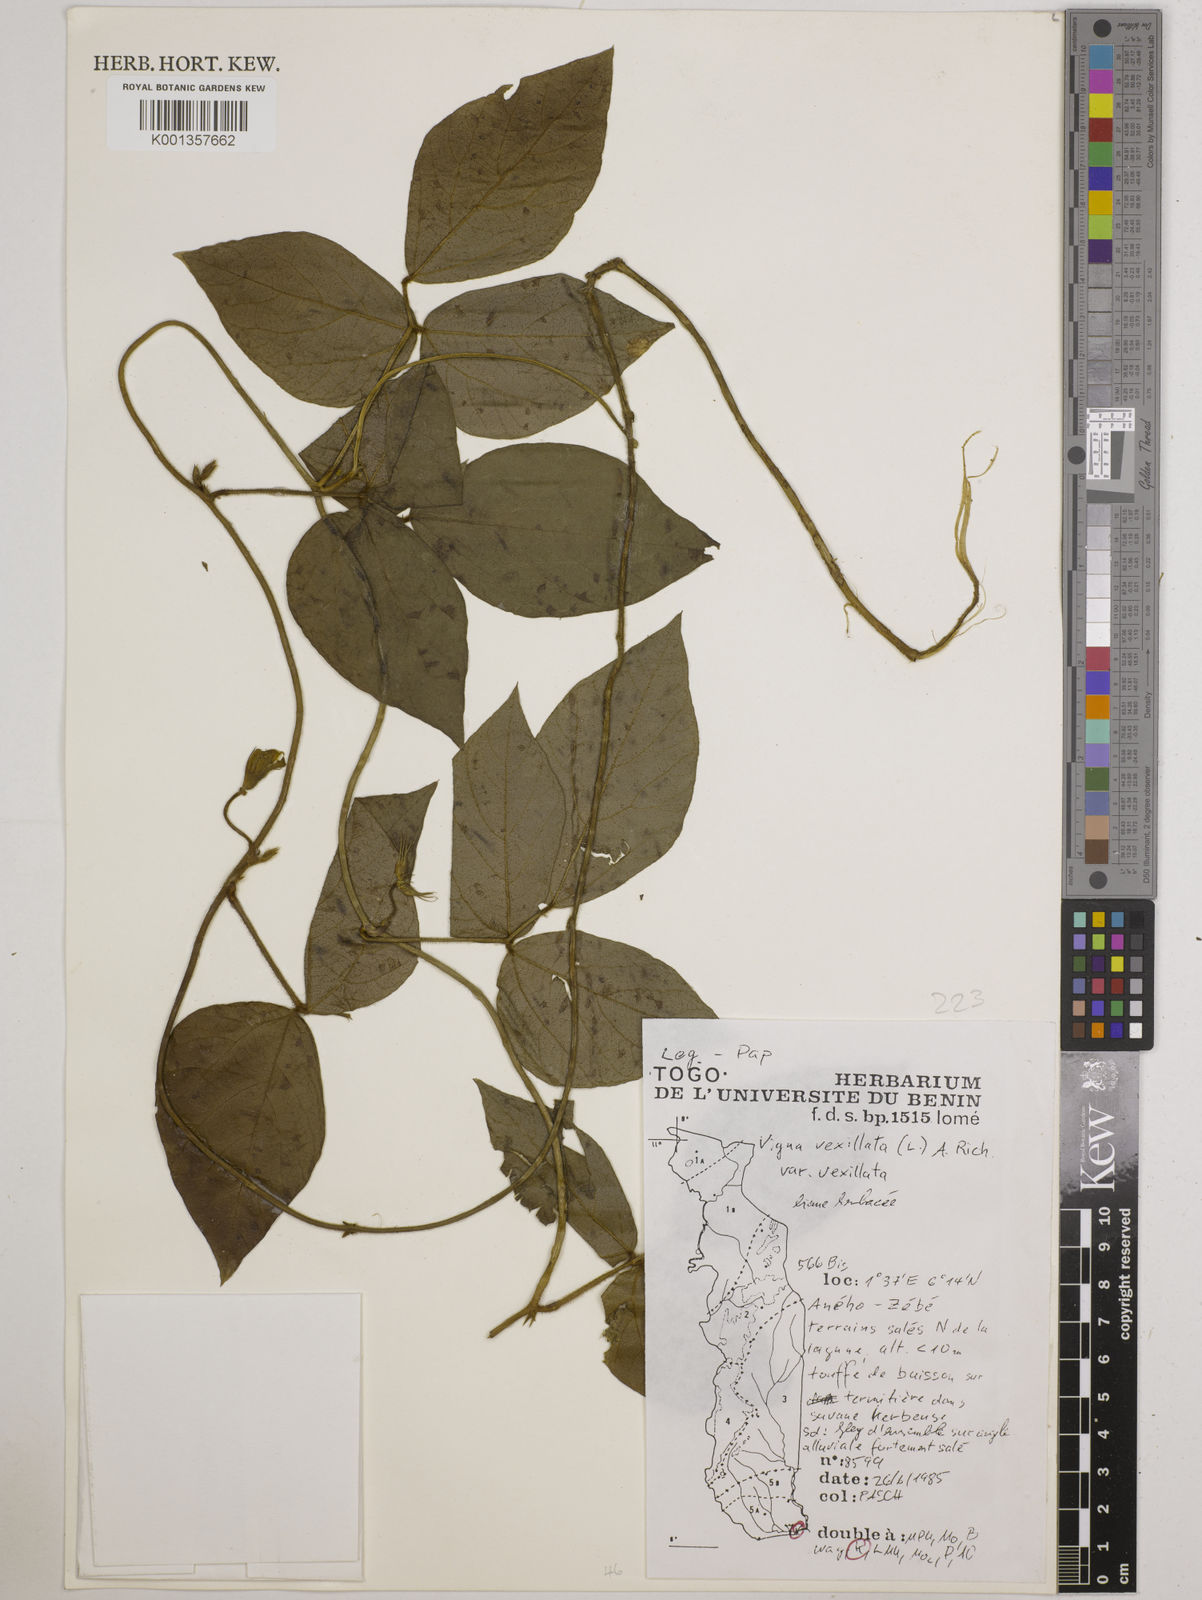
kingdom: Plantae
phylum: Tracheophyta
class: Magnoliopsida
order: Fabales
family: Fabaceae
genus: Vigna
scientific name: Vigna vexillata
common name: Zombi pea
